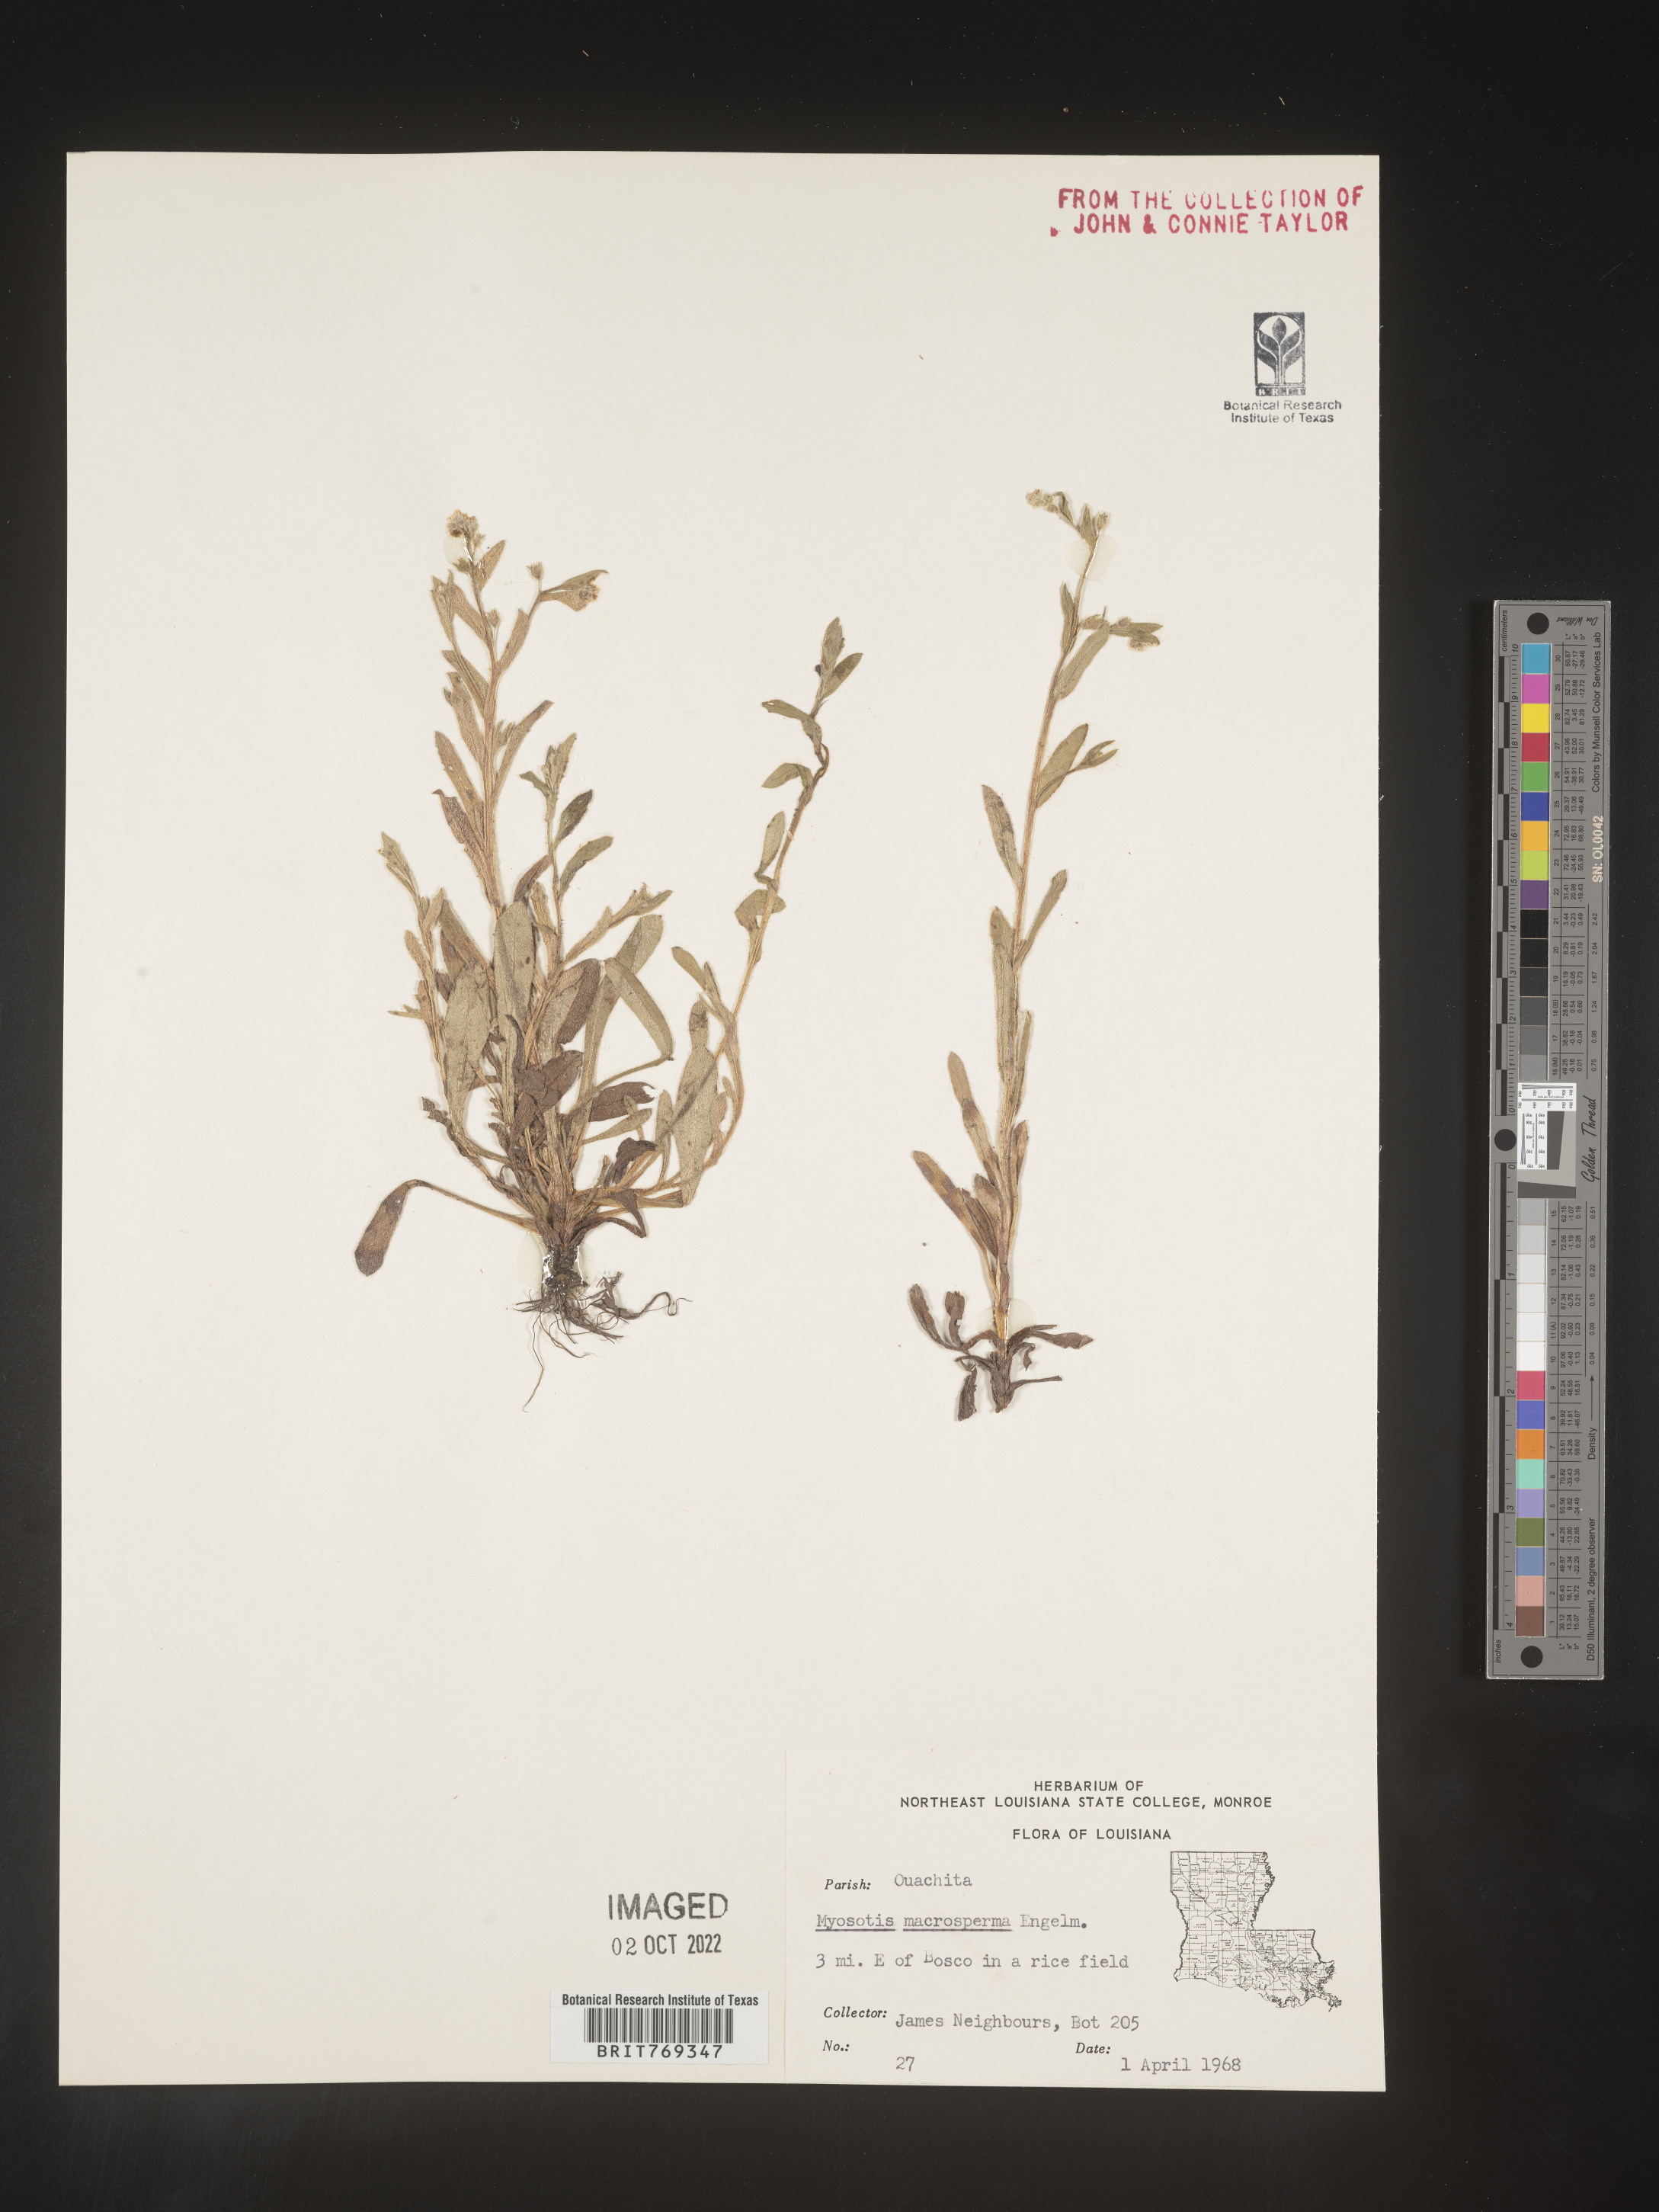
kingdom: Plantae
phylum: Tracheophyta
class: Magnoliopsida
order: Boraginales
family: Boraginaceae
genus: Myosotis
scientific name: Myosotis macrosperma
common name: Large-seed forget-me-not
